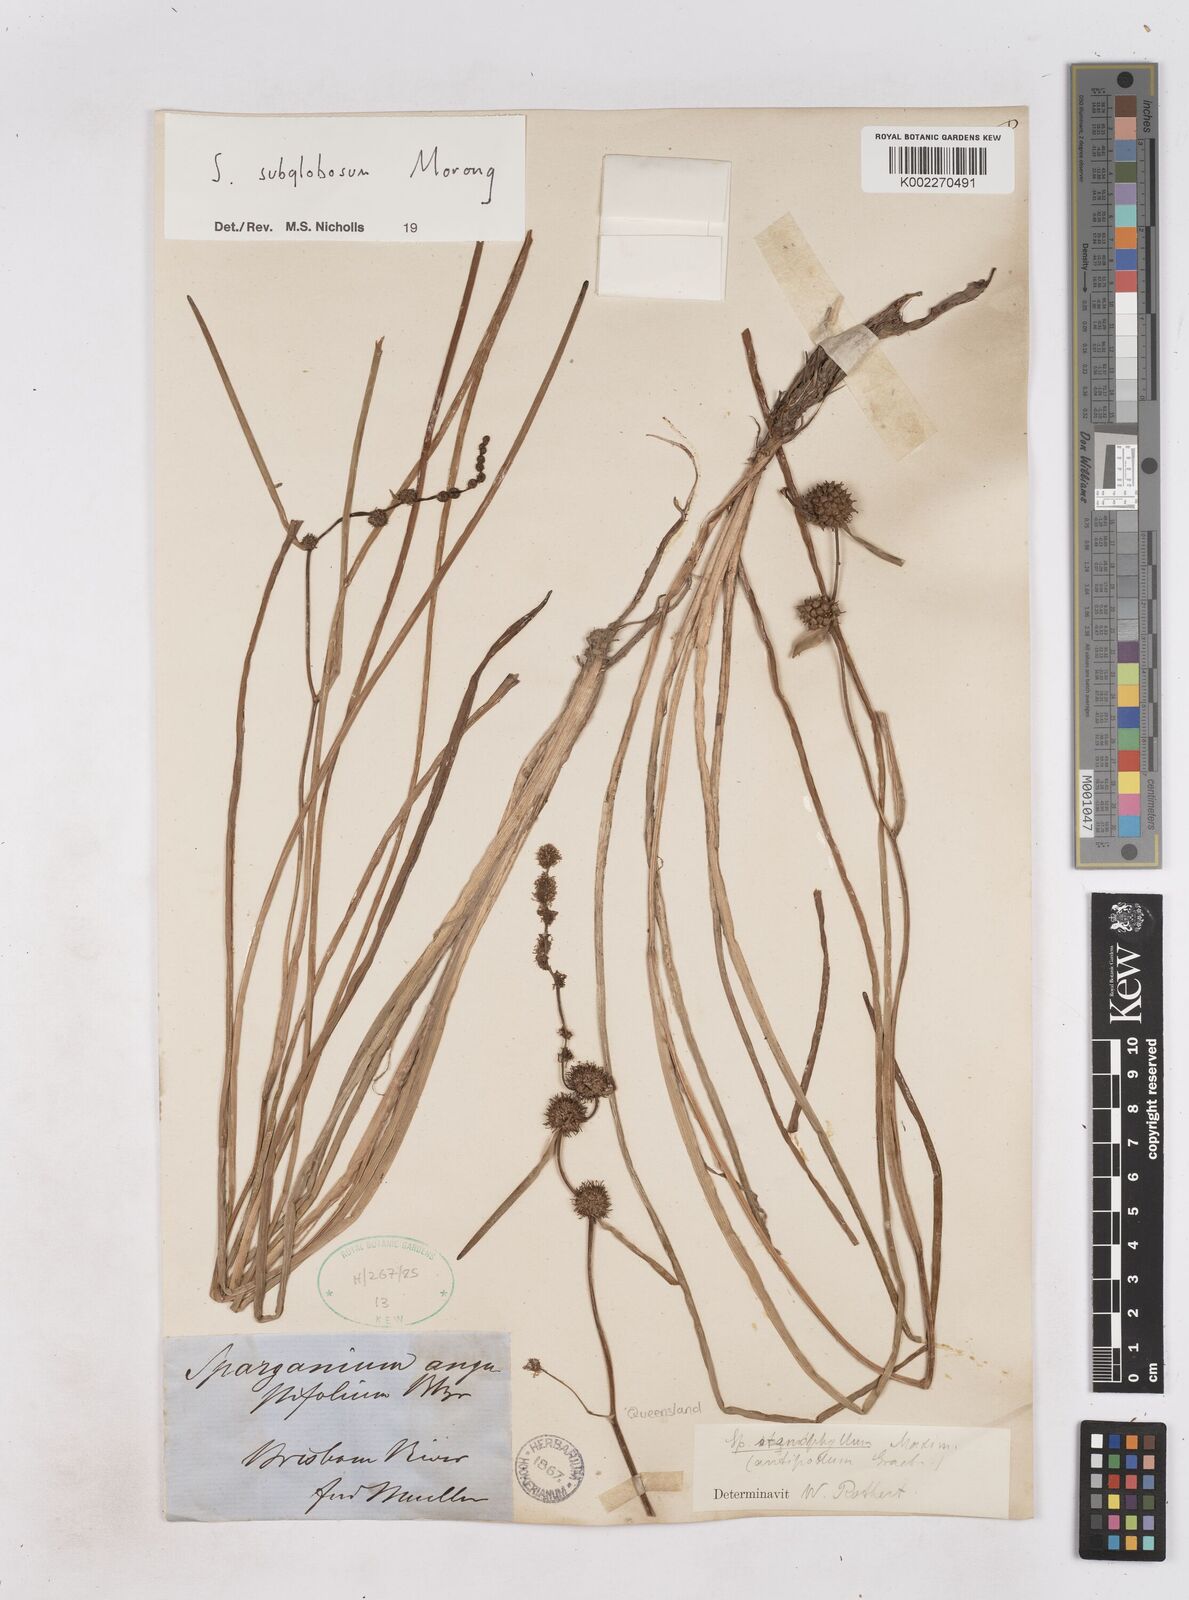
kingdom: Plantae
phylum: Tracheophyta
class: Liliopsida
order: Poales
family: Typhaceae
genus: Sparganium
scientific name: Sparganium subglobosum
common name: Burr­-reed
